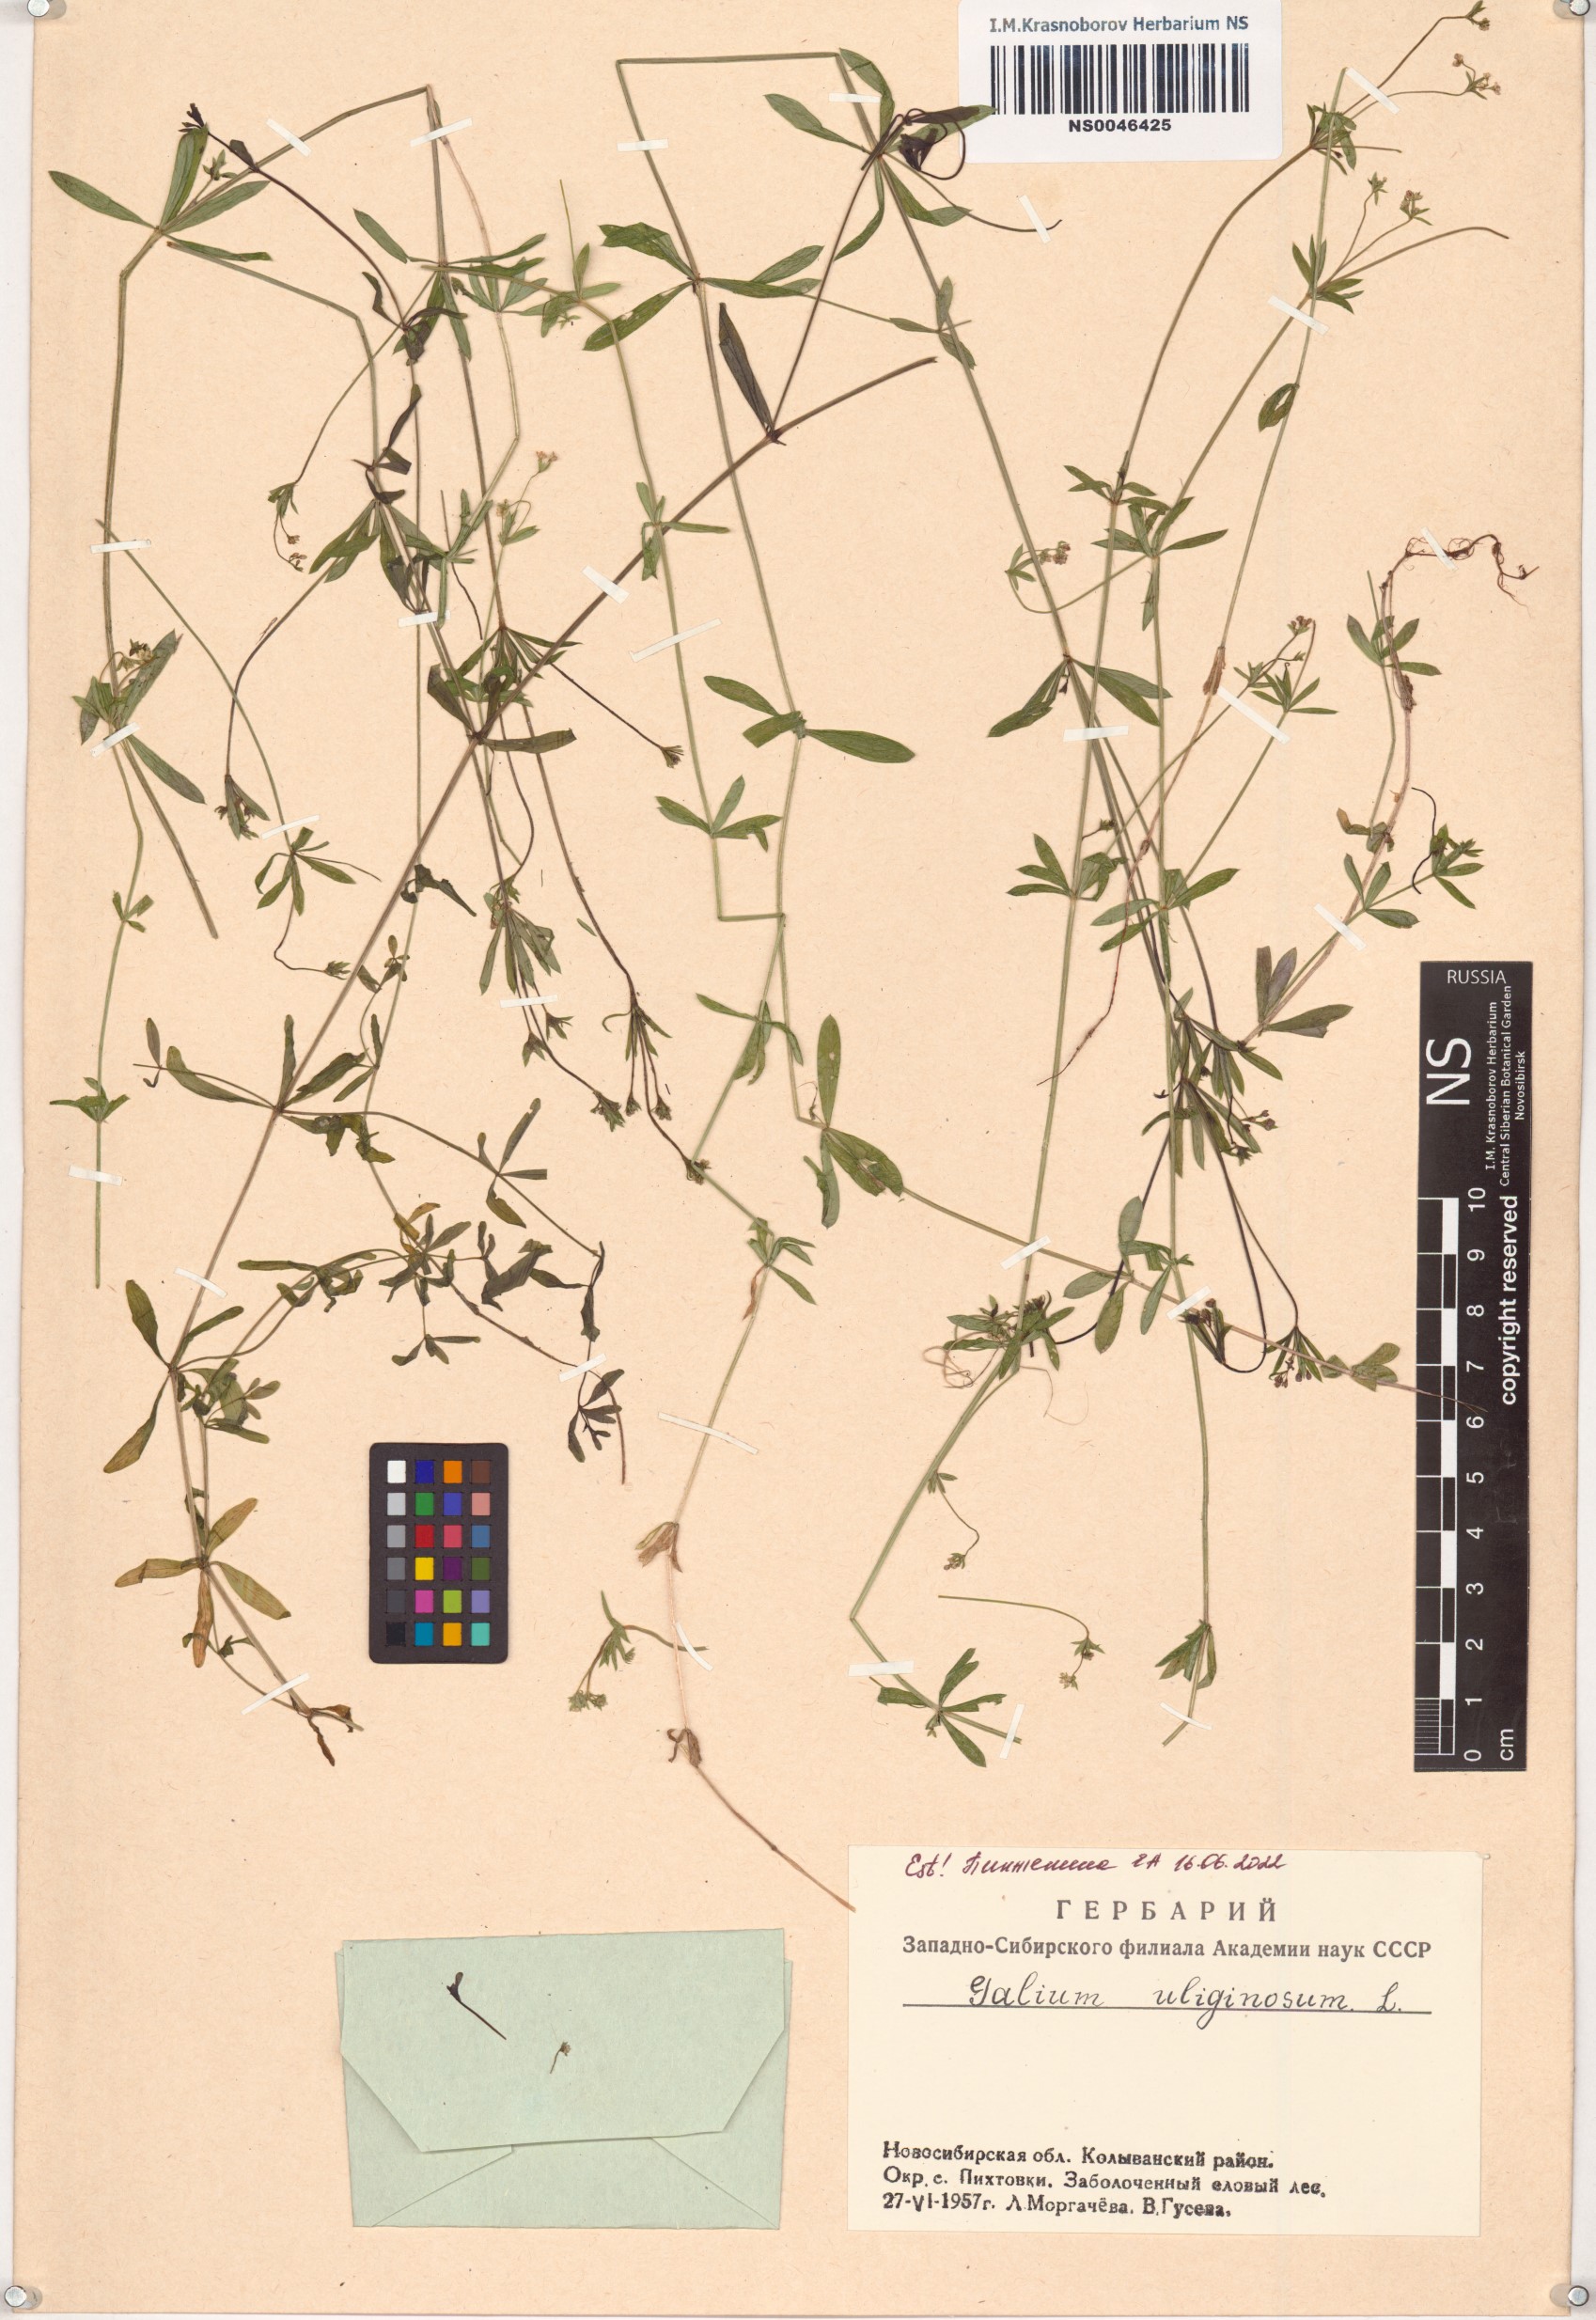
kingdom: Plantae
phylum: Tracheophyta
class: Magnoliopsida
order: Gentianales
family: Rubiaceae
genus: Galium
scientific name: Galium uliginosum
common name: Fen bedstraw
